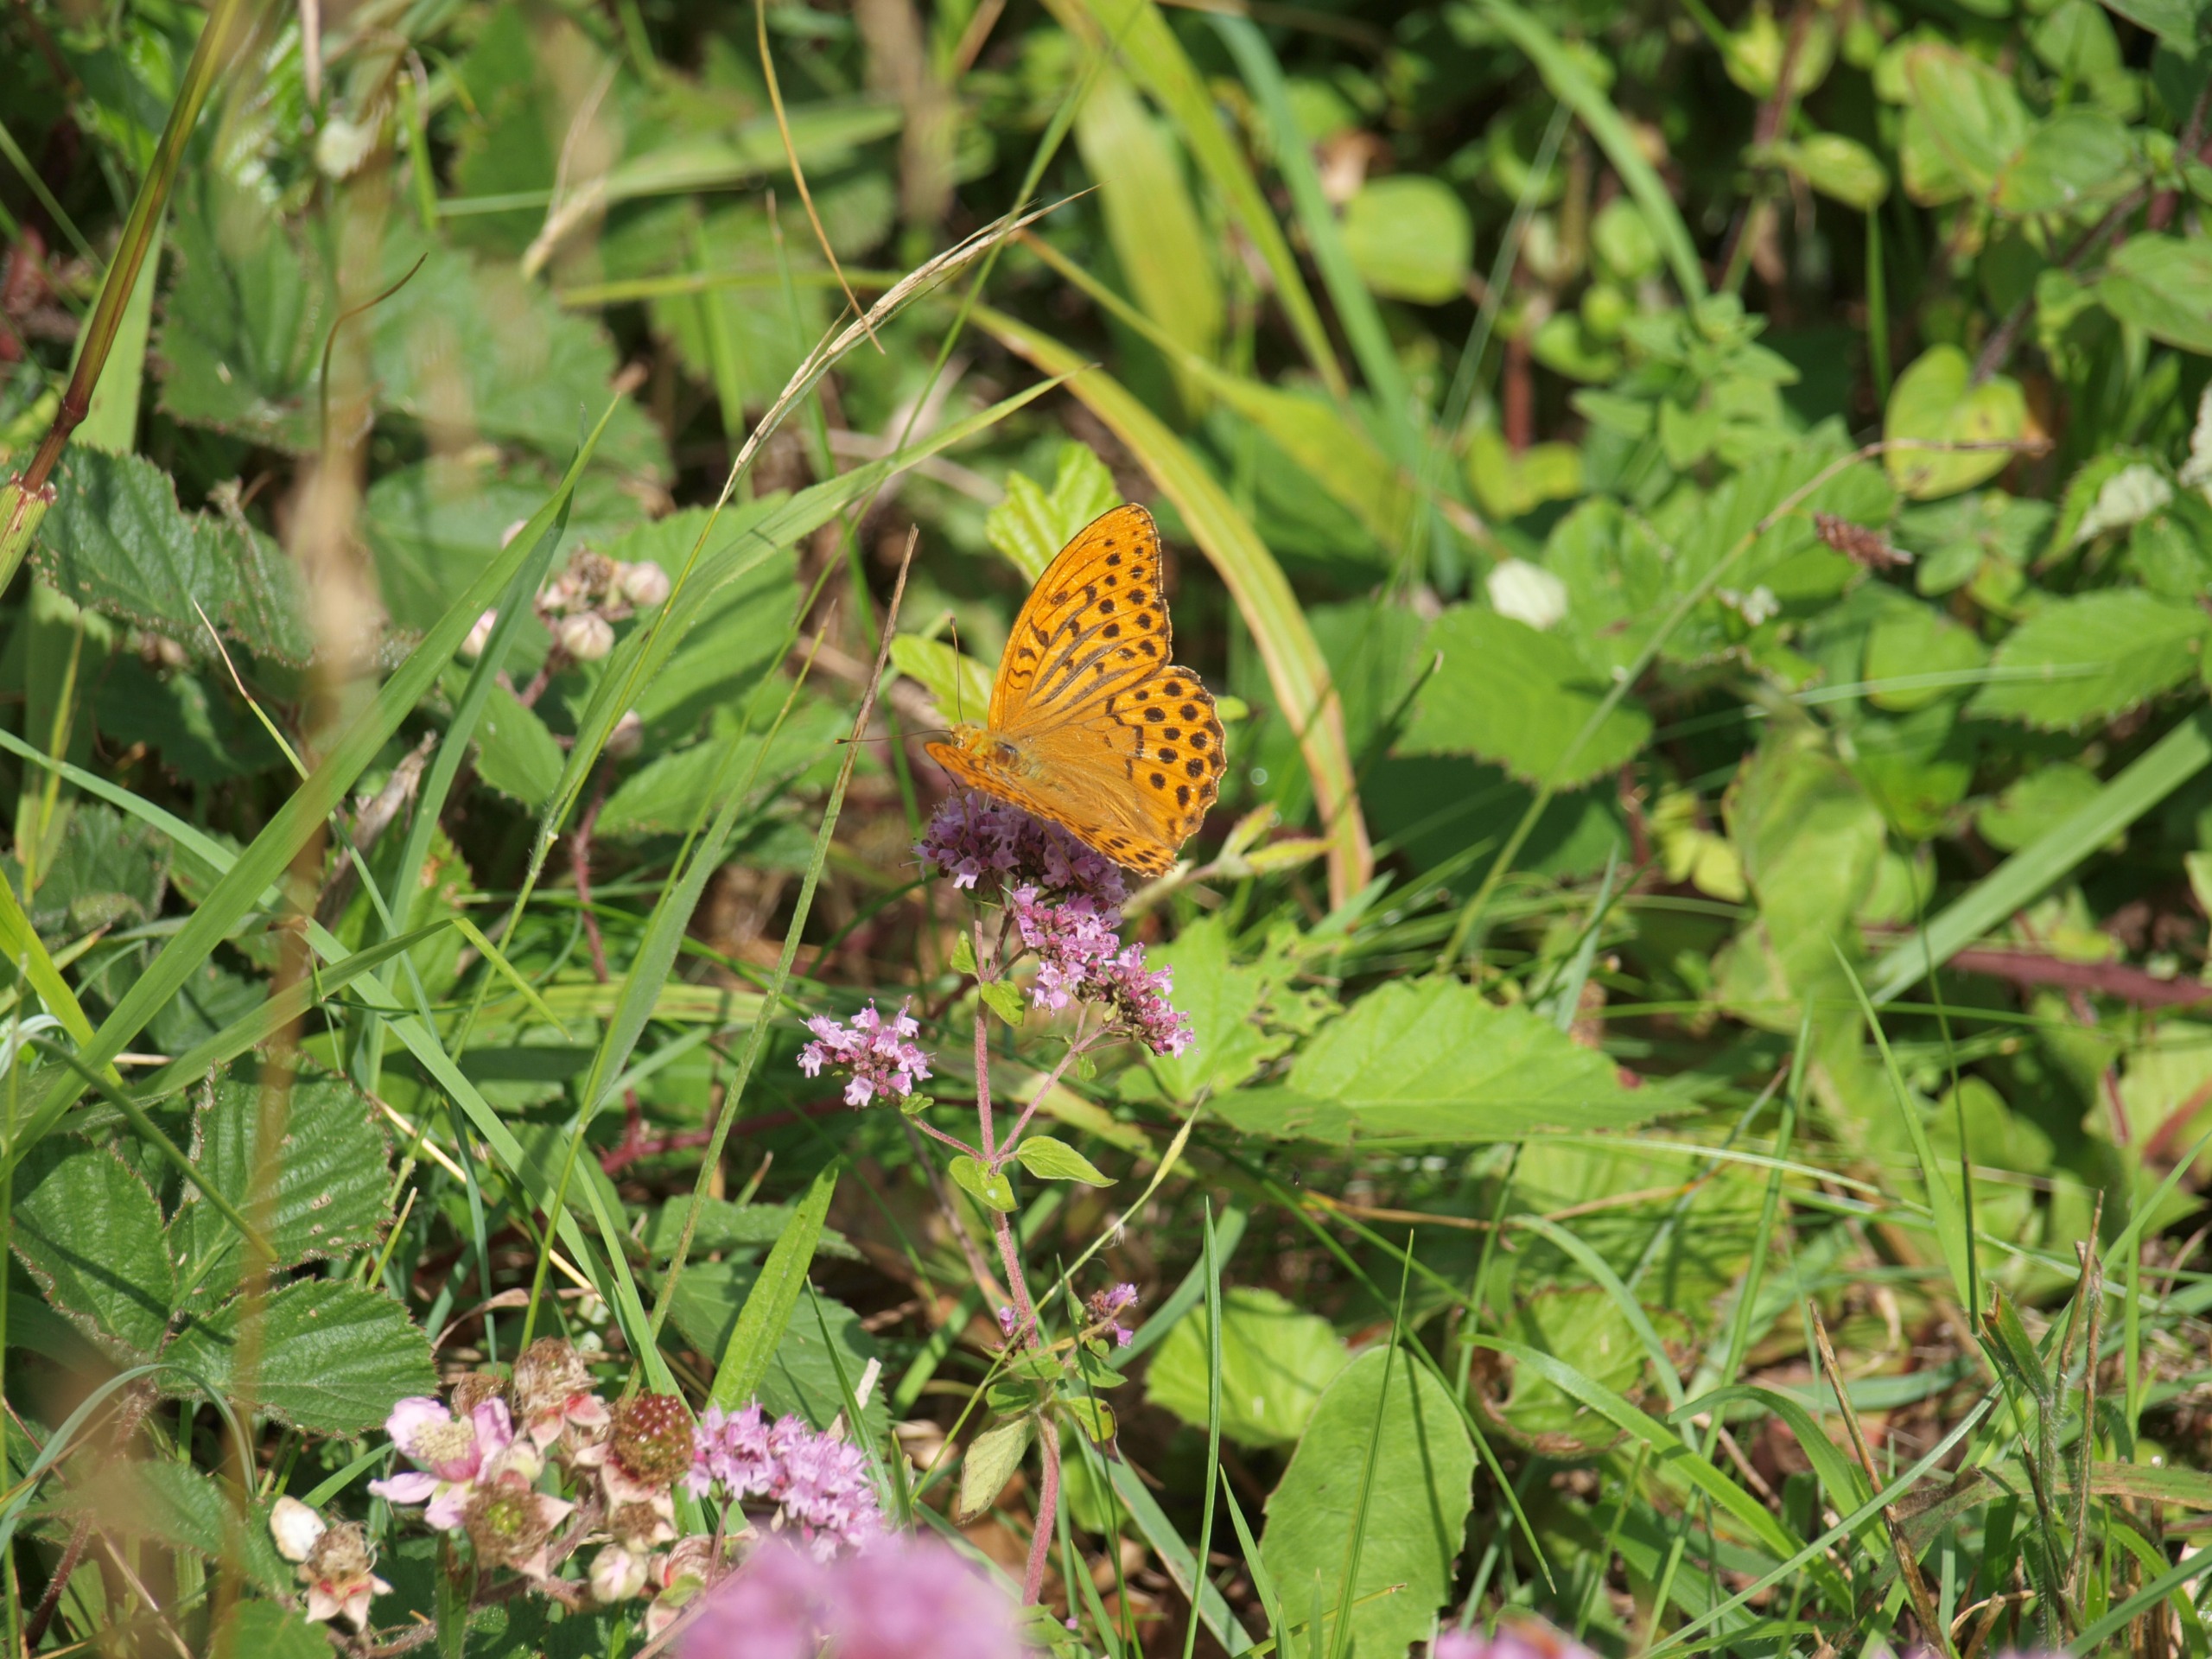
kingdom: Animalia
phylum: Arthropoda
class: Insecta
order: Lepidoptera
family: Nymphalidae
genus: Argynnis
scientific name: Argynnis paphia
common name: Kejserkåbe
